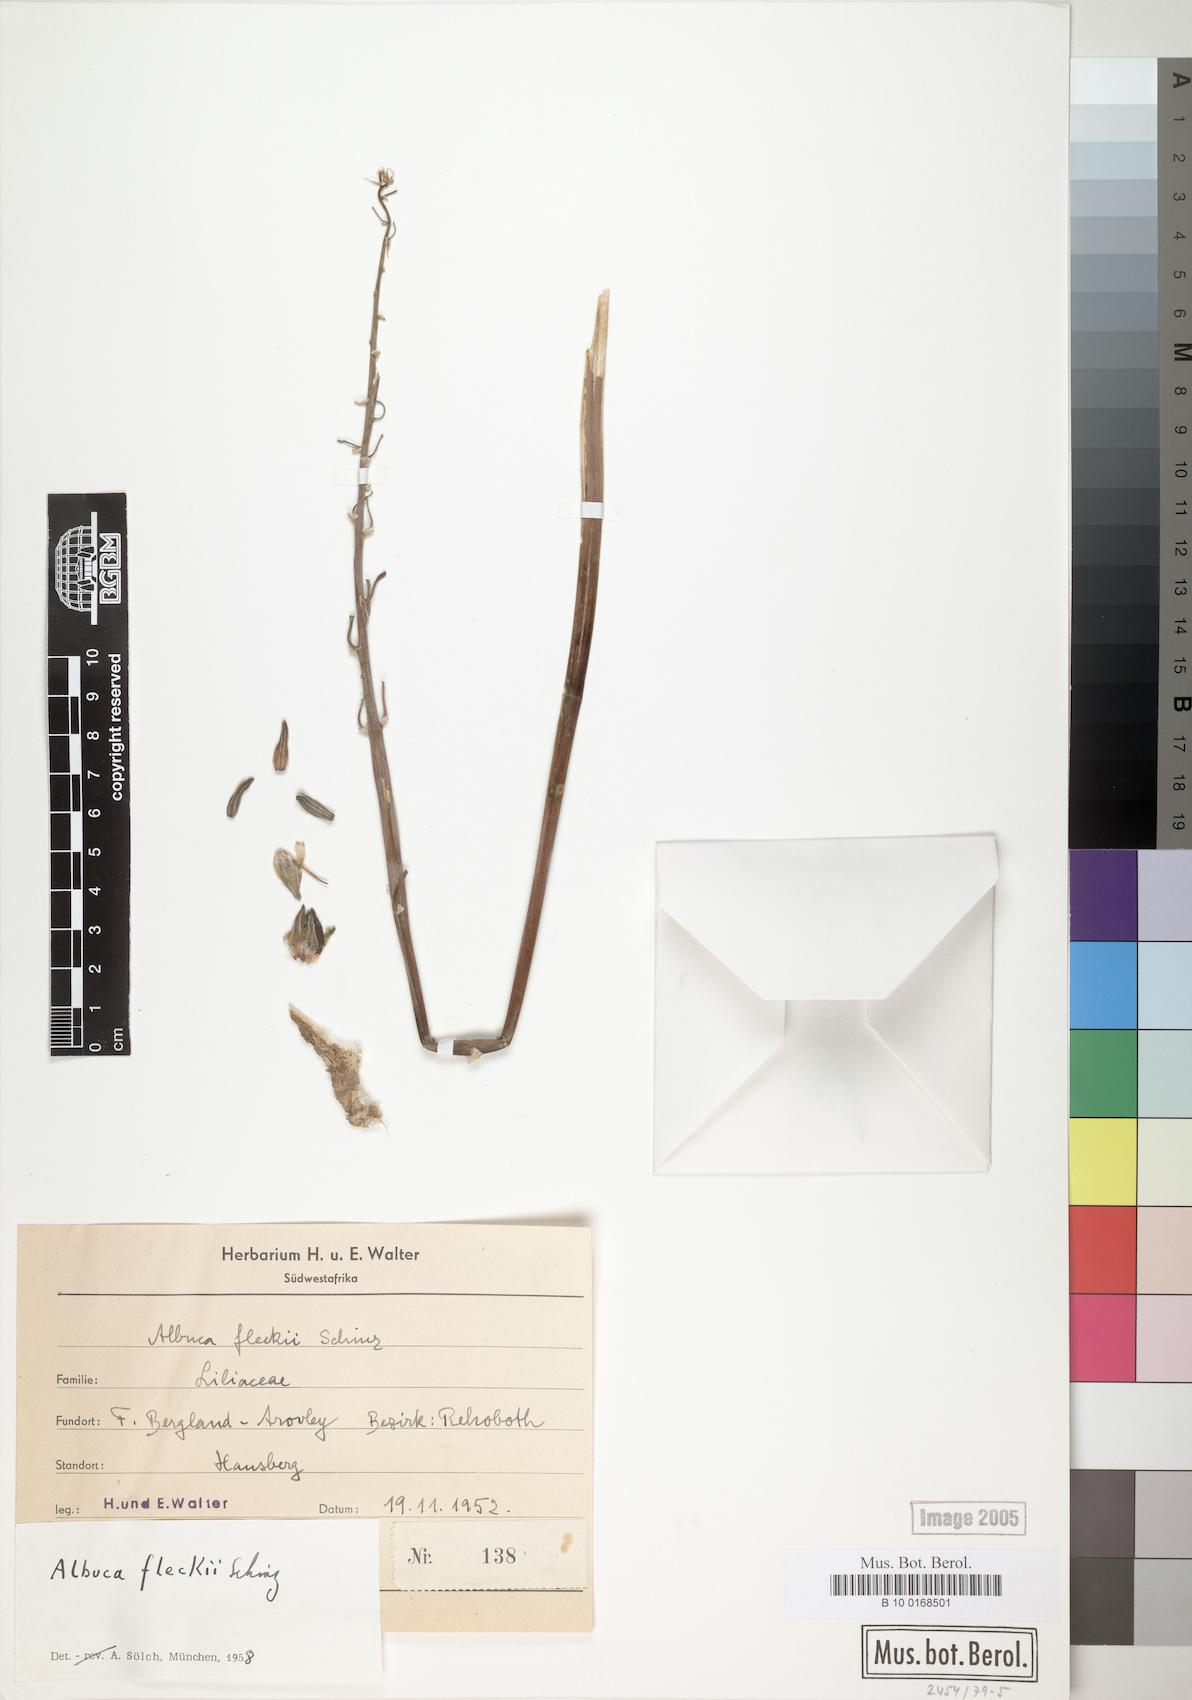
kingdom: Plantae
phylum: Tracheophyta
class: Liliopsida
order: Asparagales
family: Asparagaceae
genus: Albuca
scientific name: Albuca abyssinica
